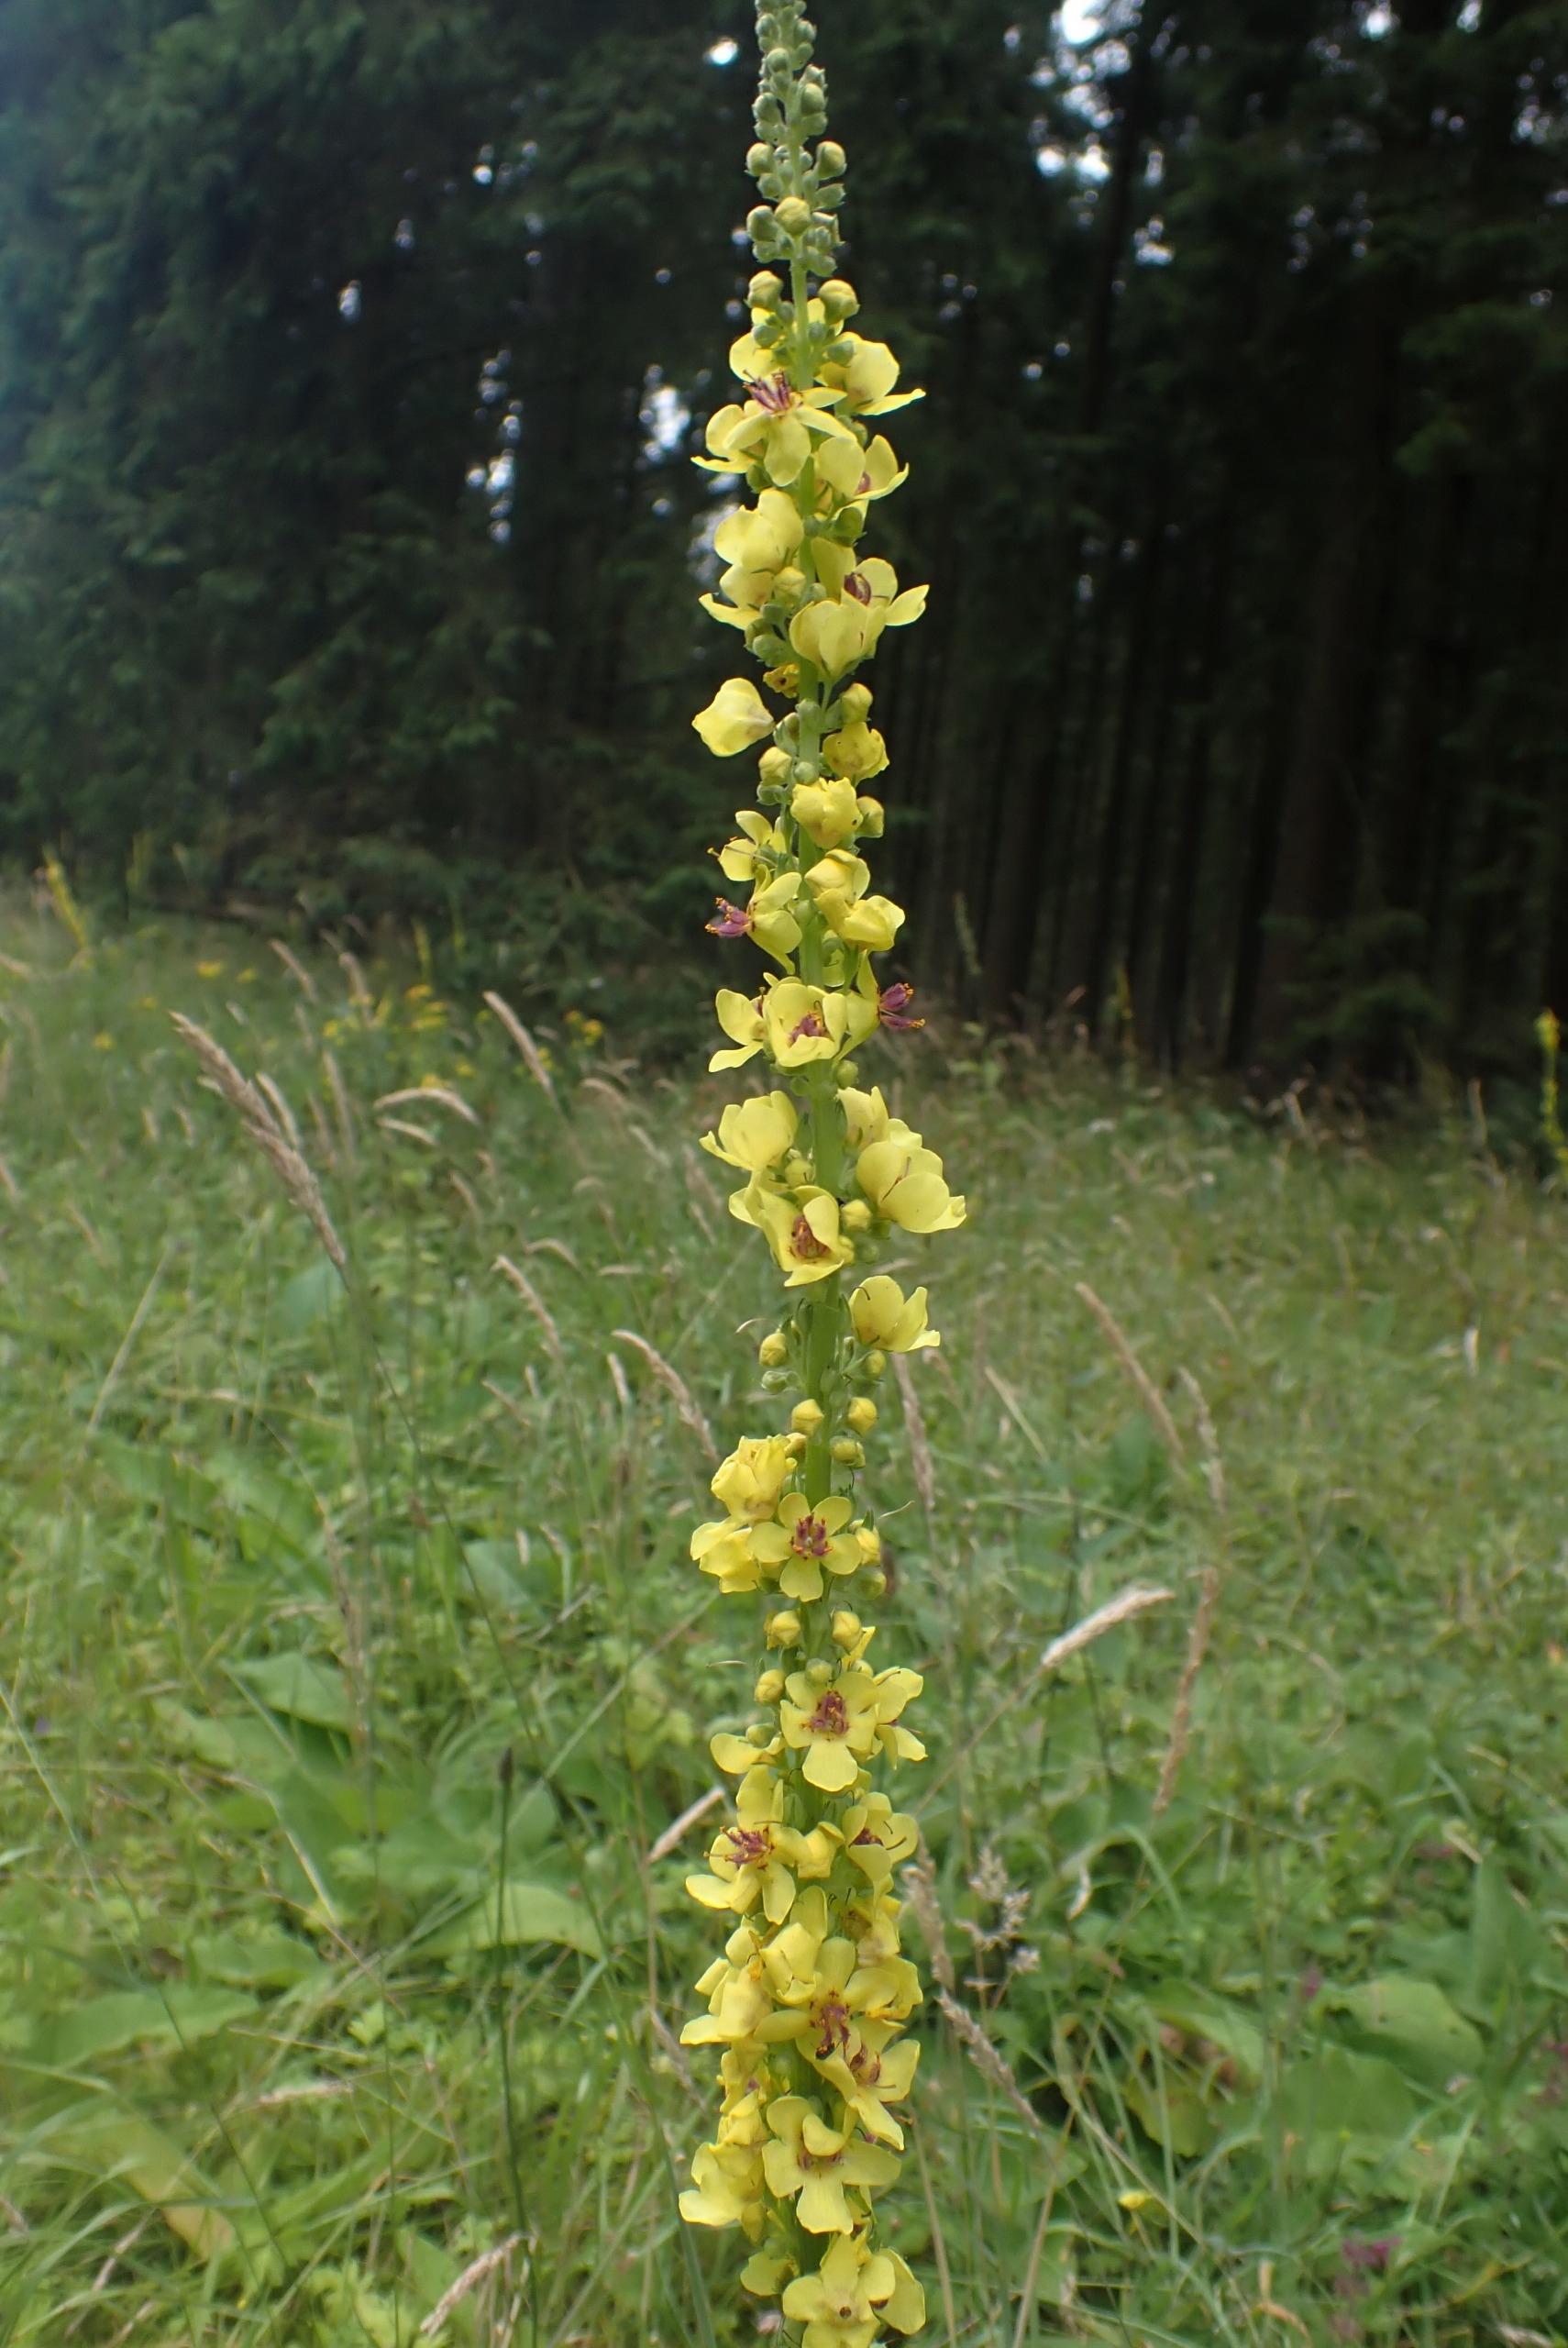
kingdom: Plantae
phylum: Tracheophyta
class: Magnoliopsida
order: Lamiales
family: Scrophulariaceae
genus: Verbascum
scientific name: Verbascum nigrum
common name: Mørk kongelys
